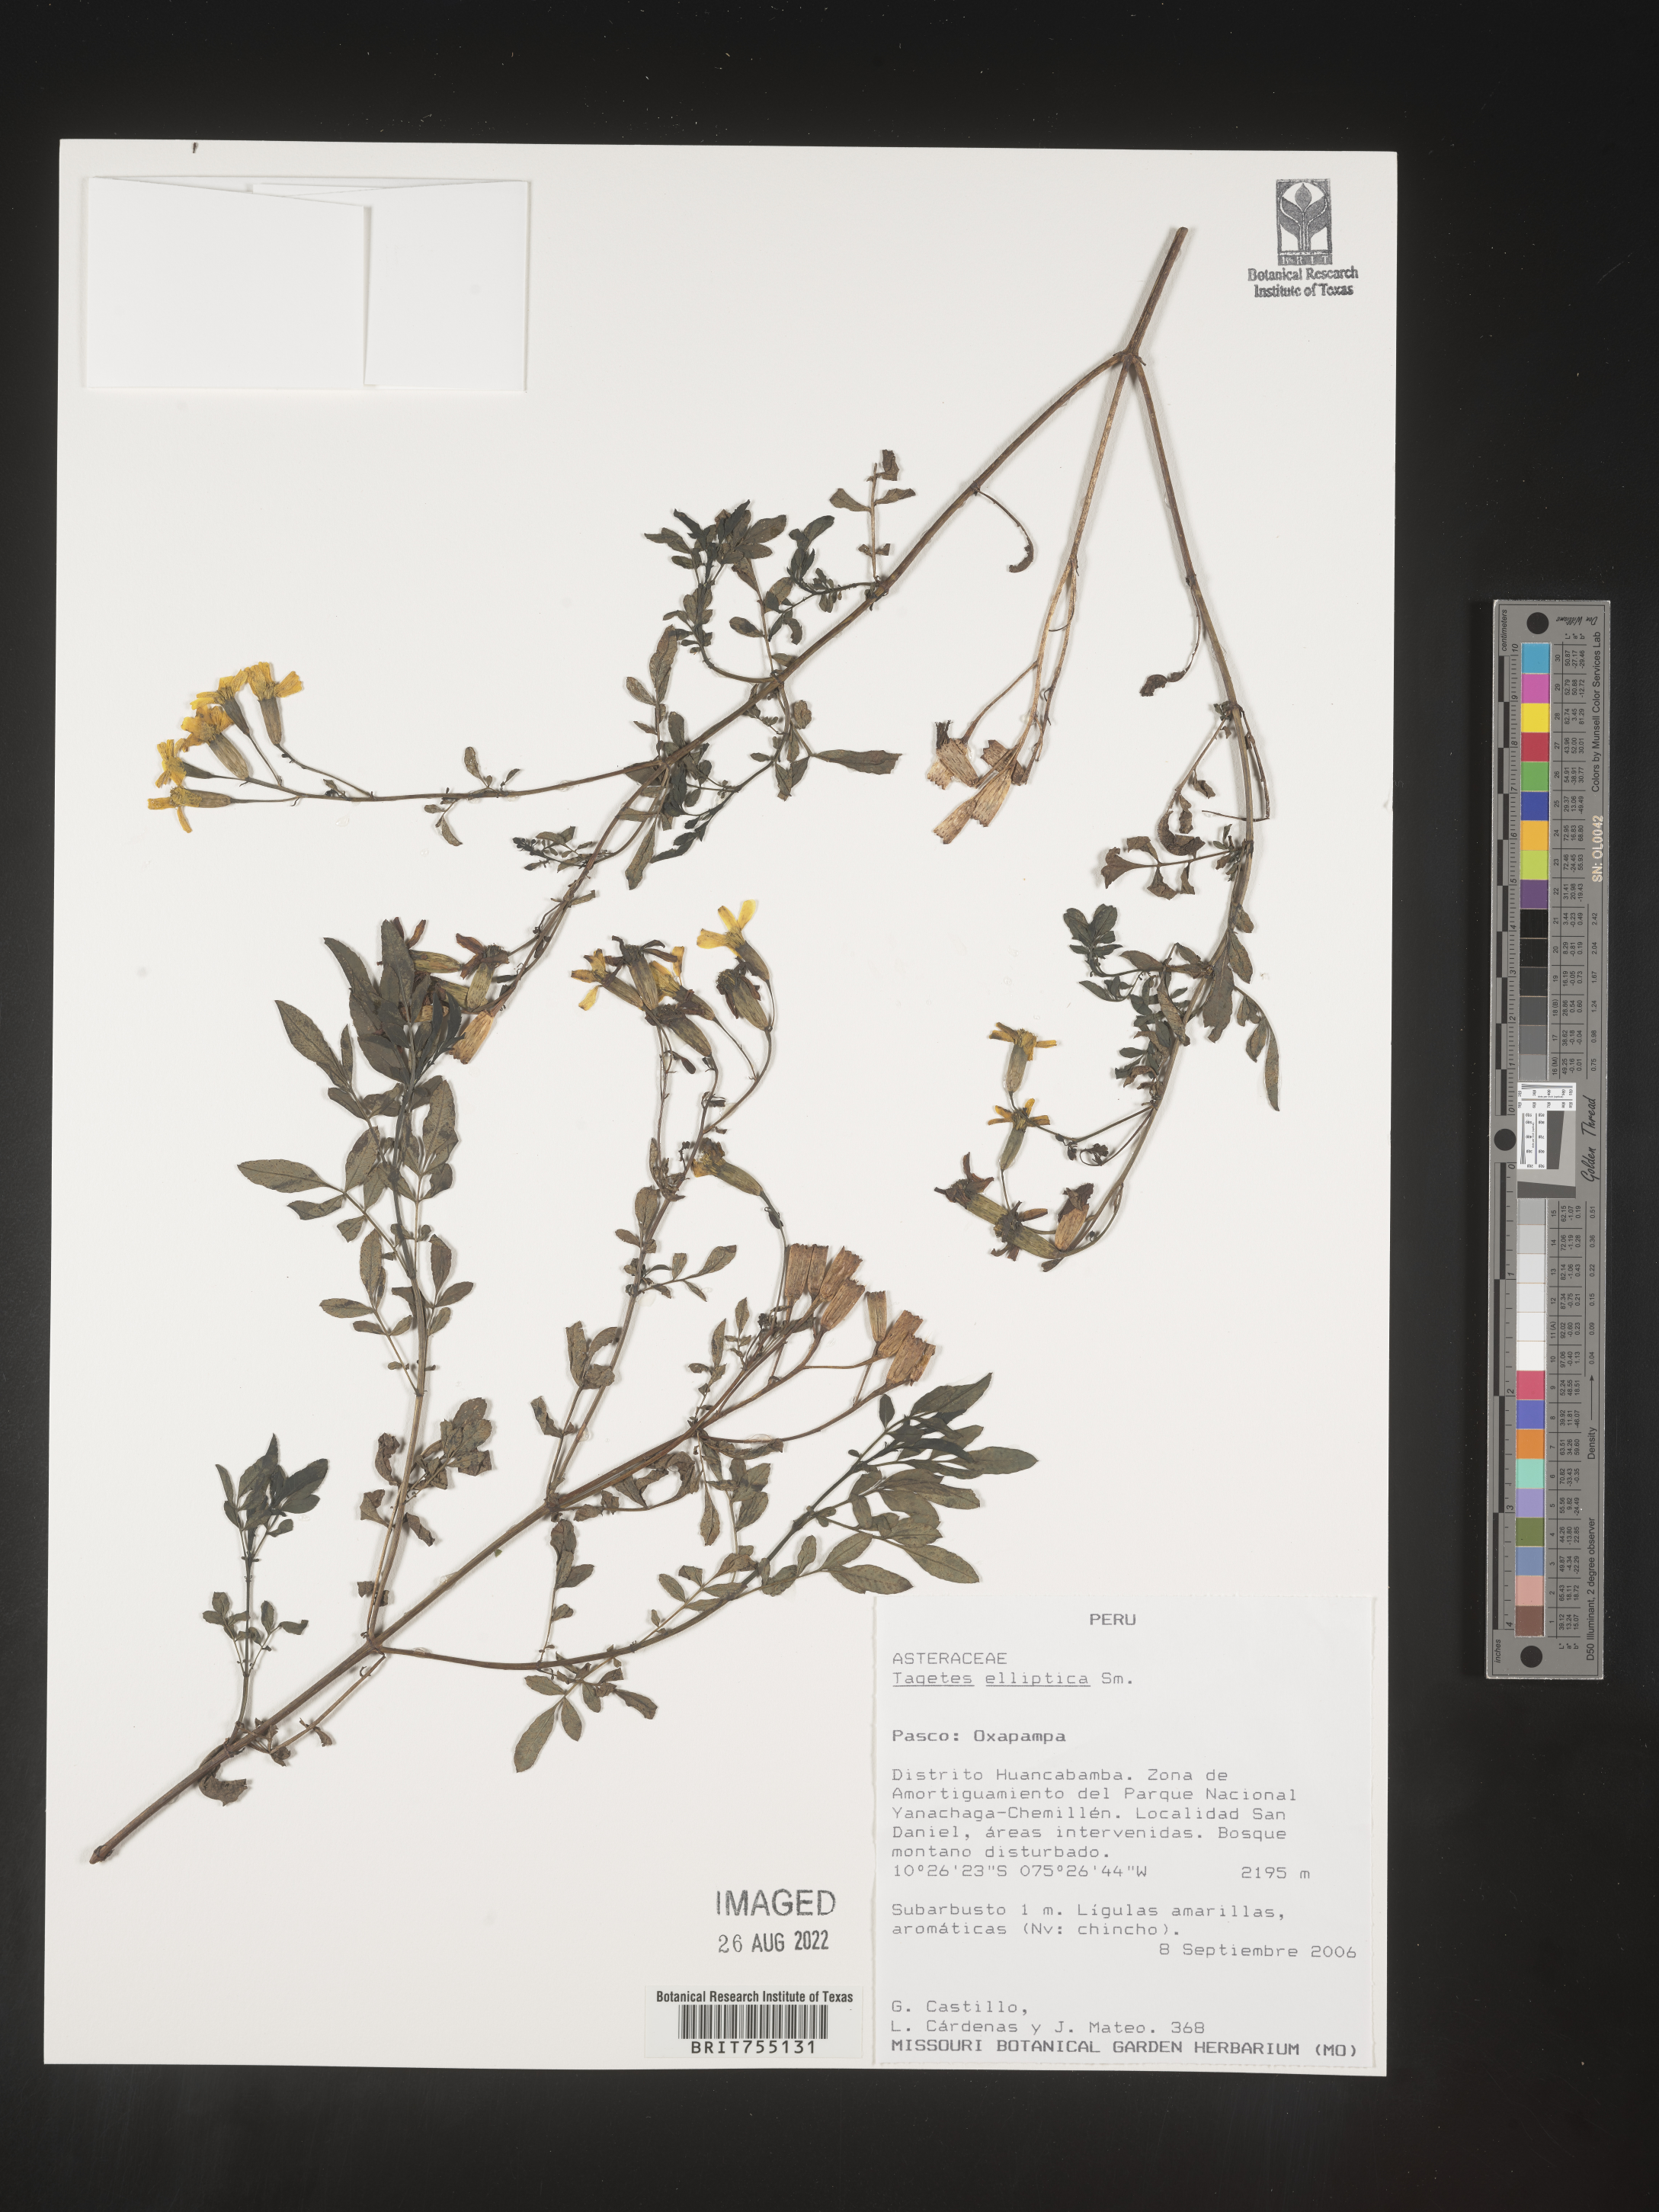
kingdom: Plantae
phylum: Tracheophyta
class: Magnoliopsida
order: Asterales
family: Asteraceae
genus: Tagetes
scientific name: Tagetes
